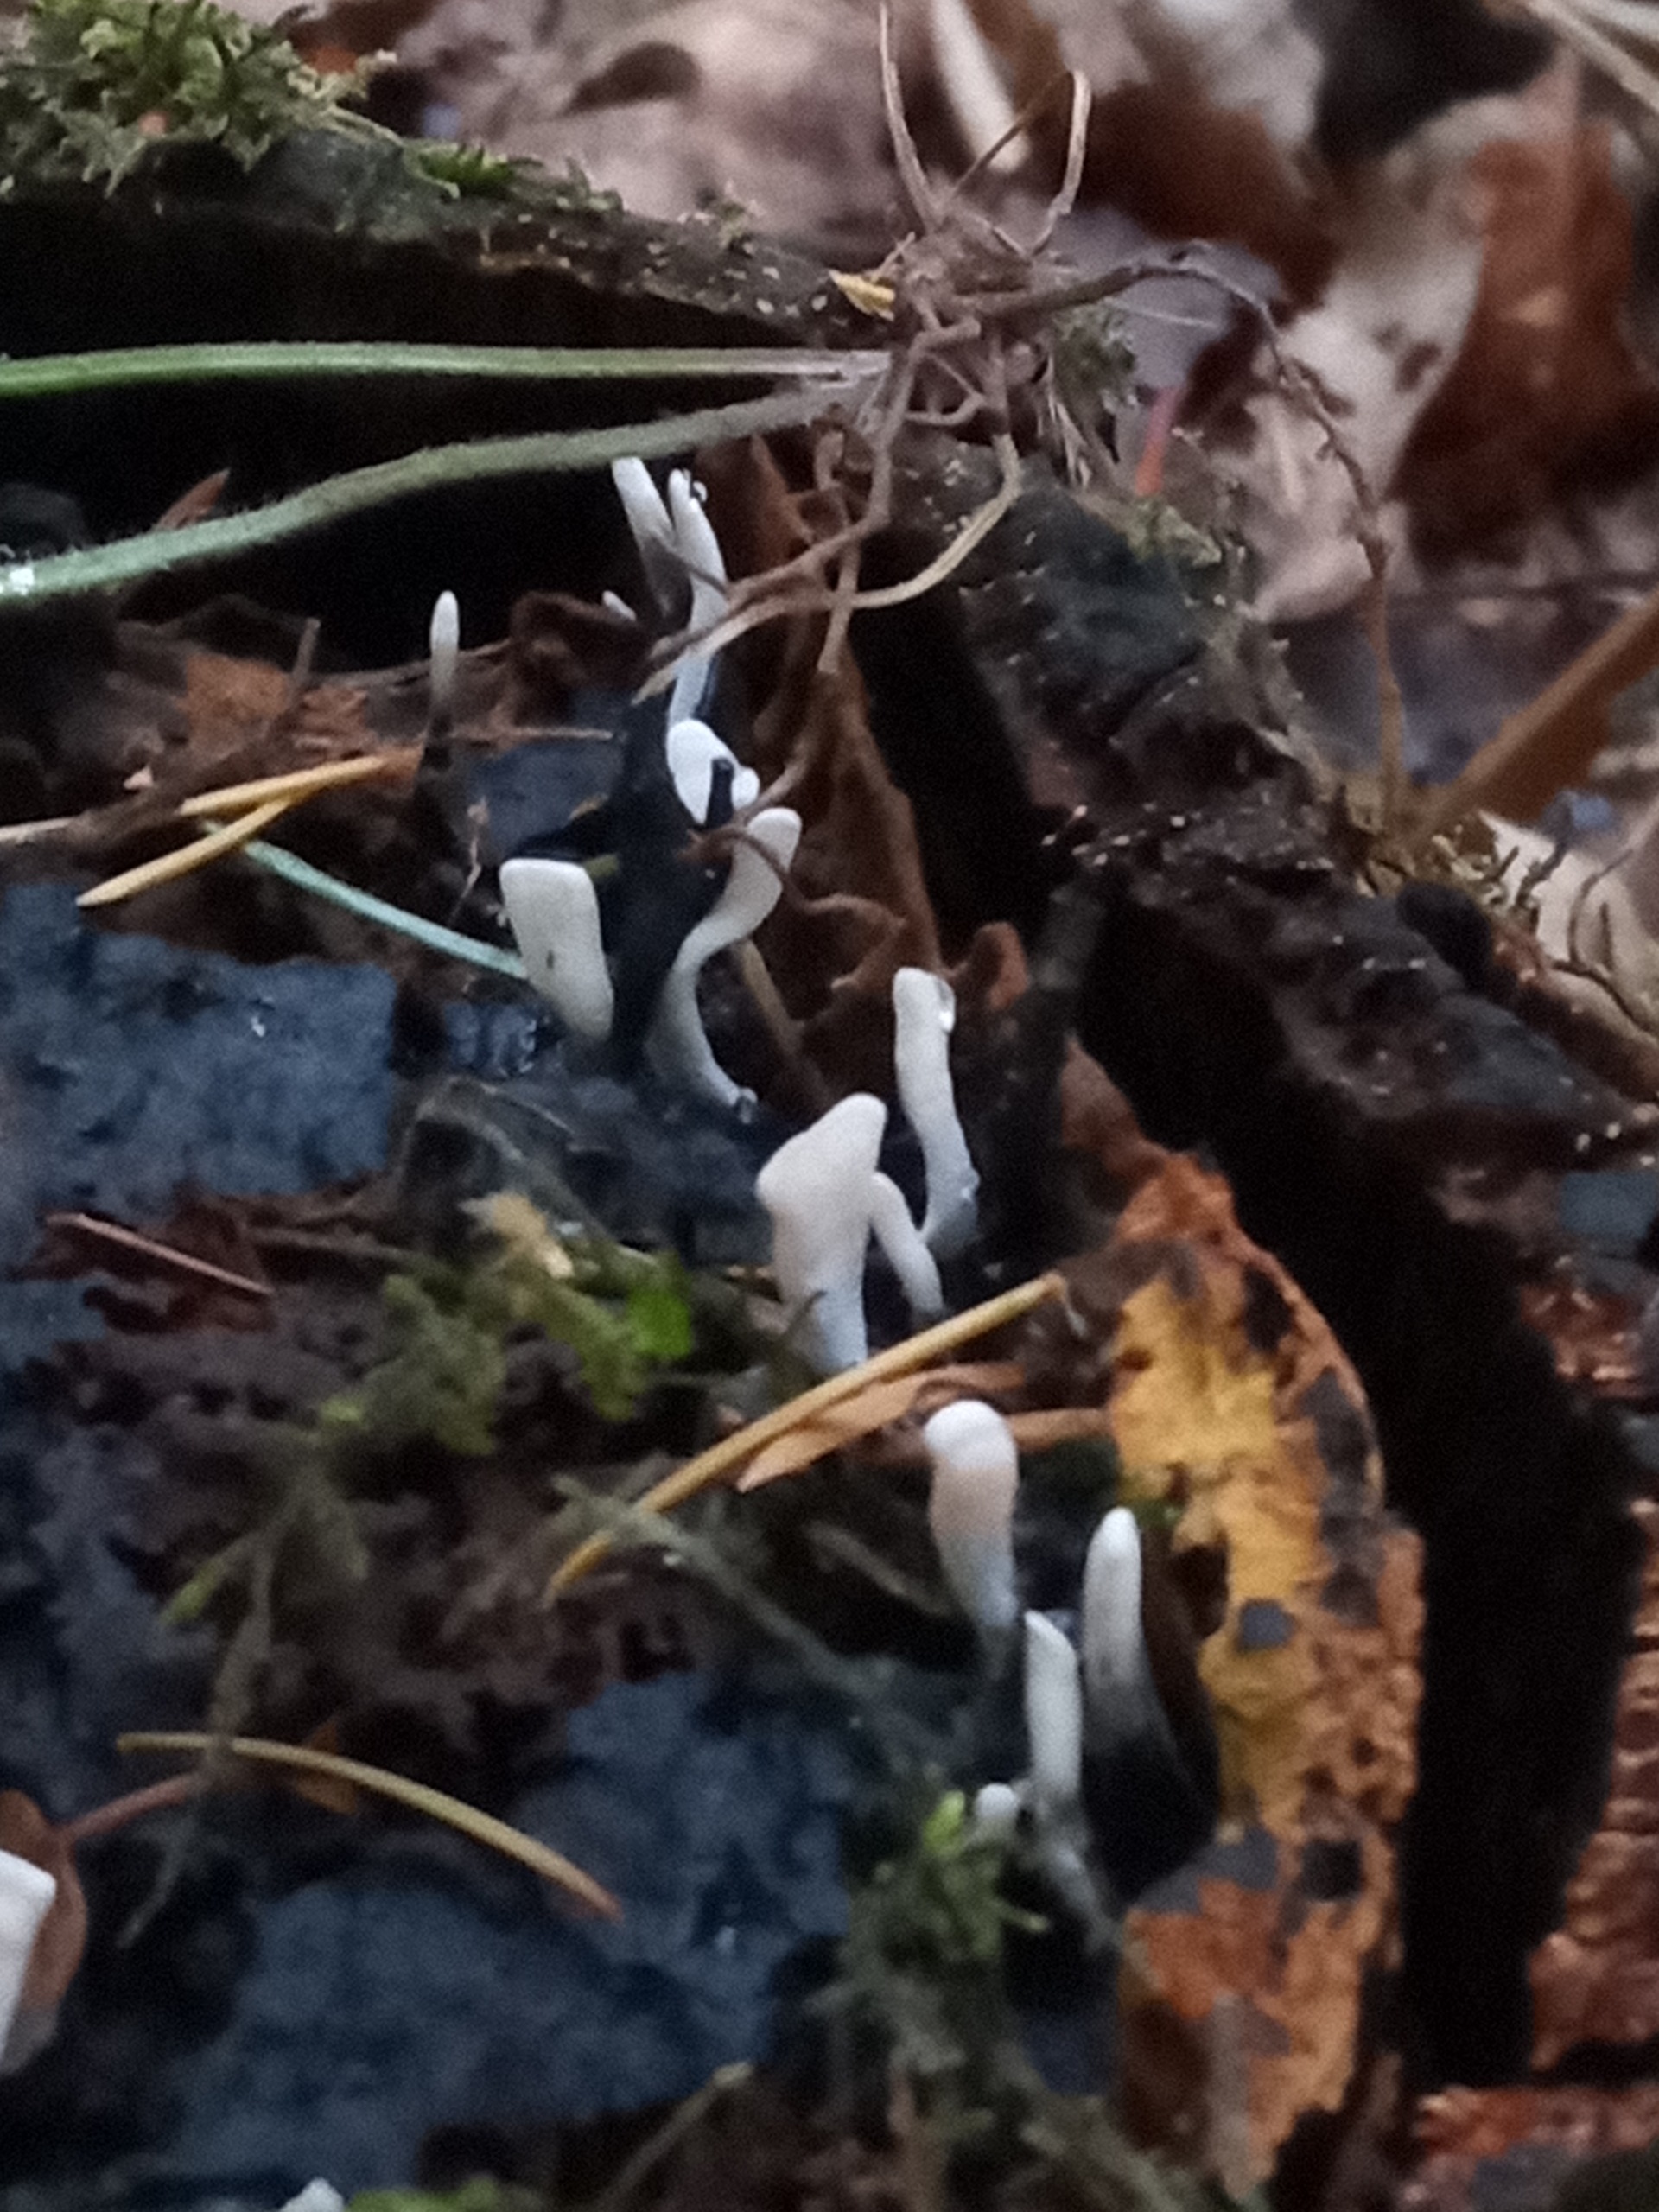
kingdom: Fungi
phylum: Ascomycota
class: Sordariomycetes
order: Xylariales
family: Xylariaceae
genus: Xylaria
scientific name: Xylaria hypoxylon
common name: Grenet stødsvamp
